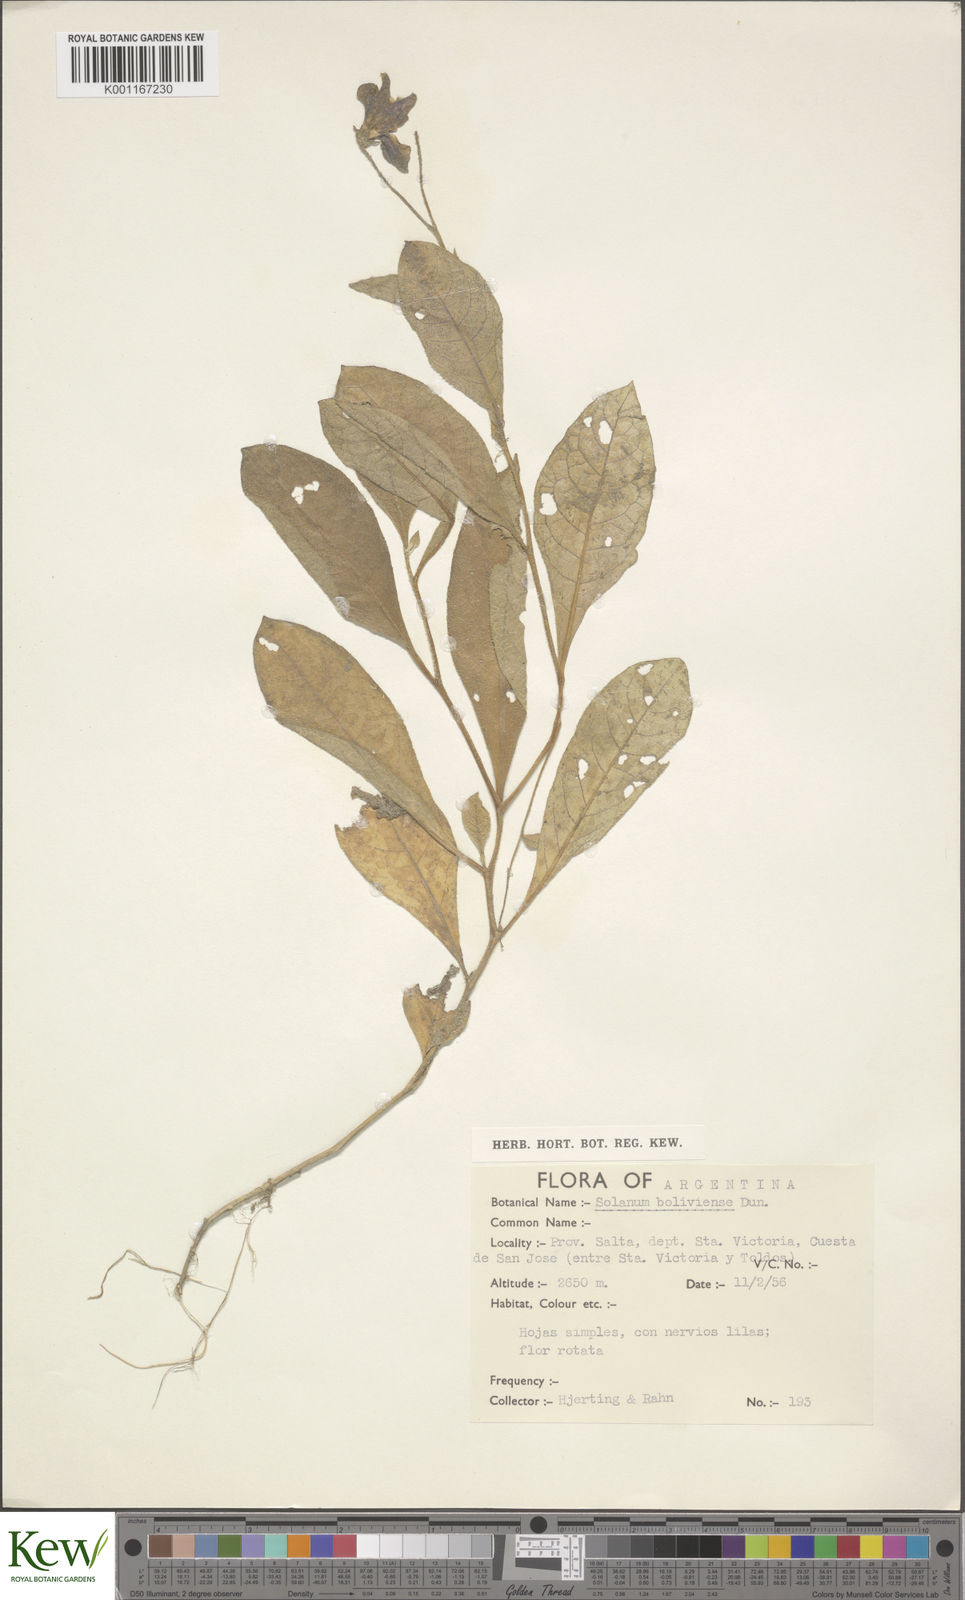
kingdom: Plantae
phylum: Tracheophyta
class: Magnoliopsida
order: Solanales
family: Solanaceae
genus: Solanum
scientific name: Solanum boliviense
